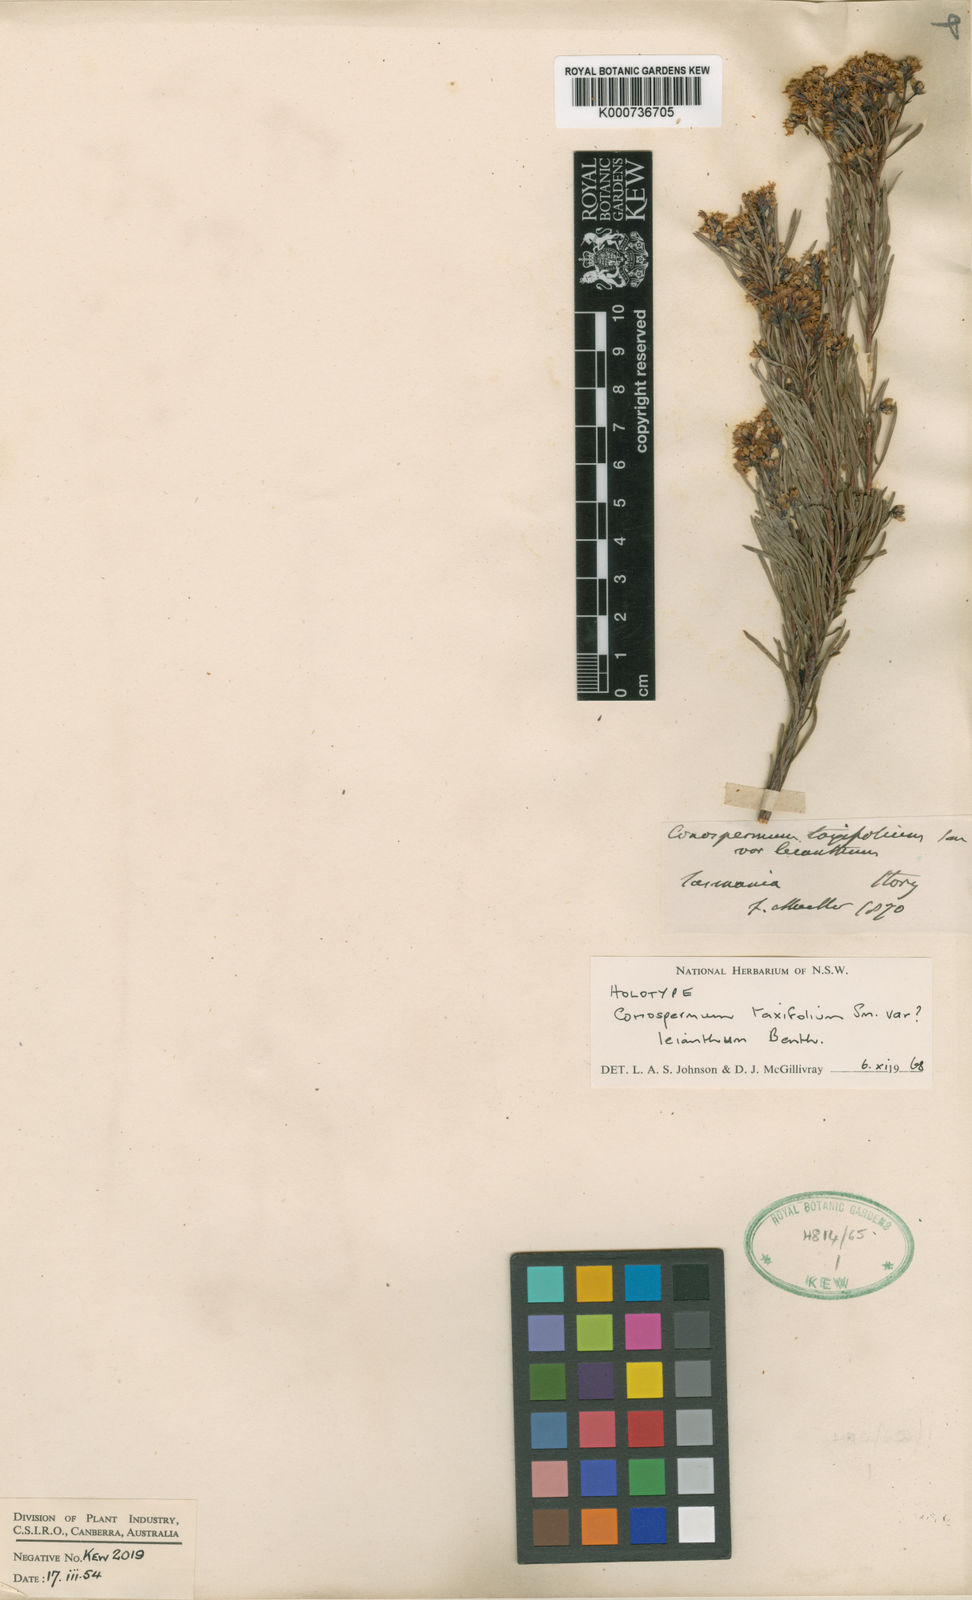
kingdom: Plantae
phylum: Tracheophyta
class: Magnoliopsida
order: Proteales
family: Proteaceae
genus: Conospermum
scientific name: Conospermum
